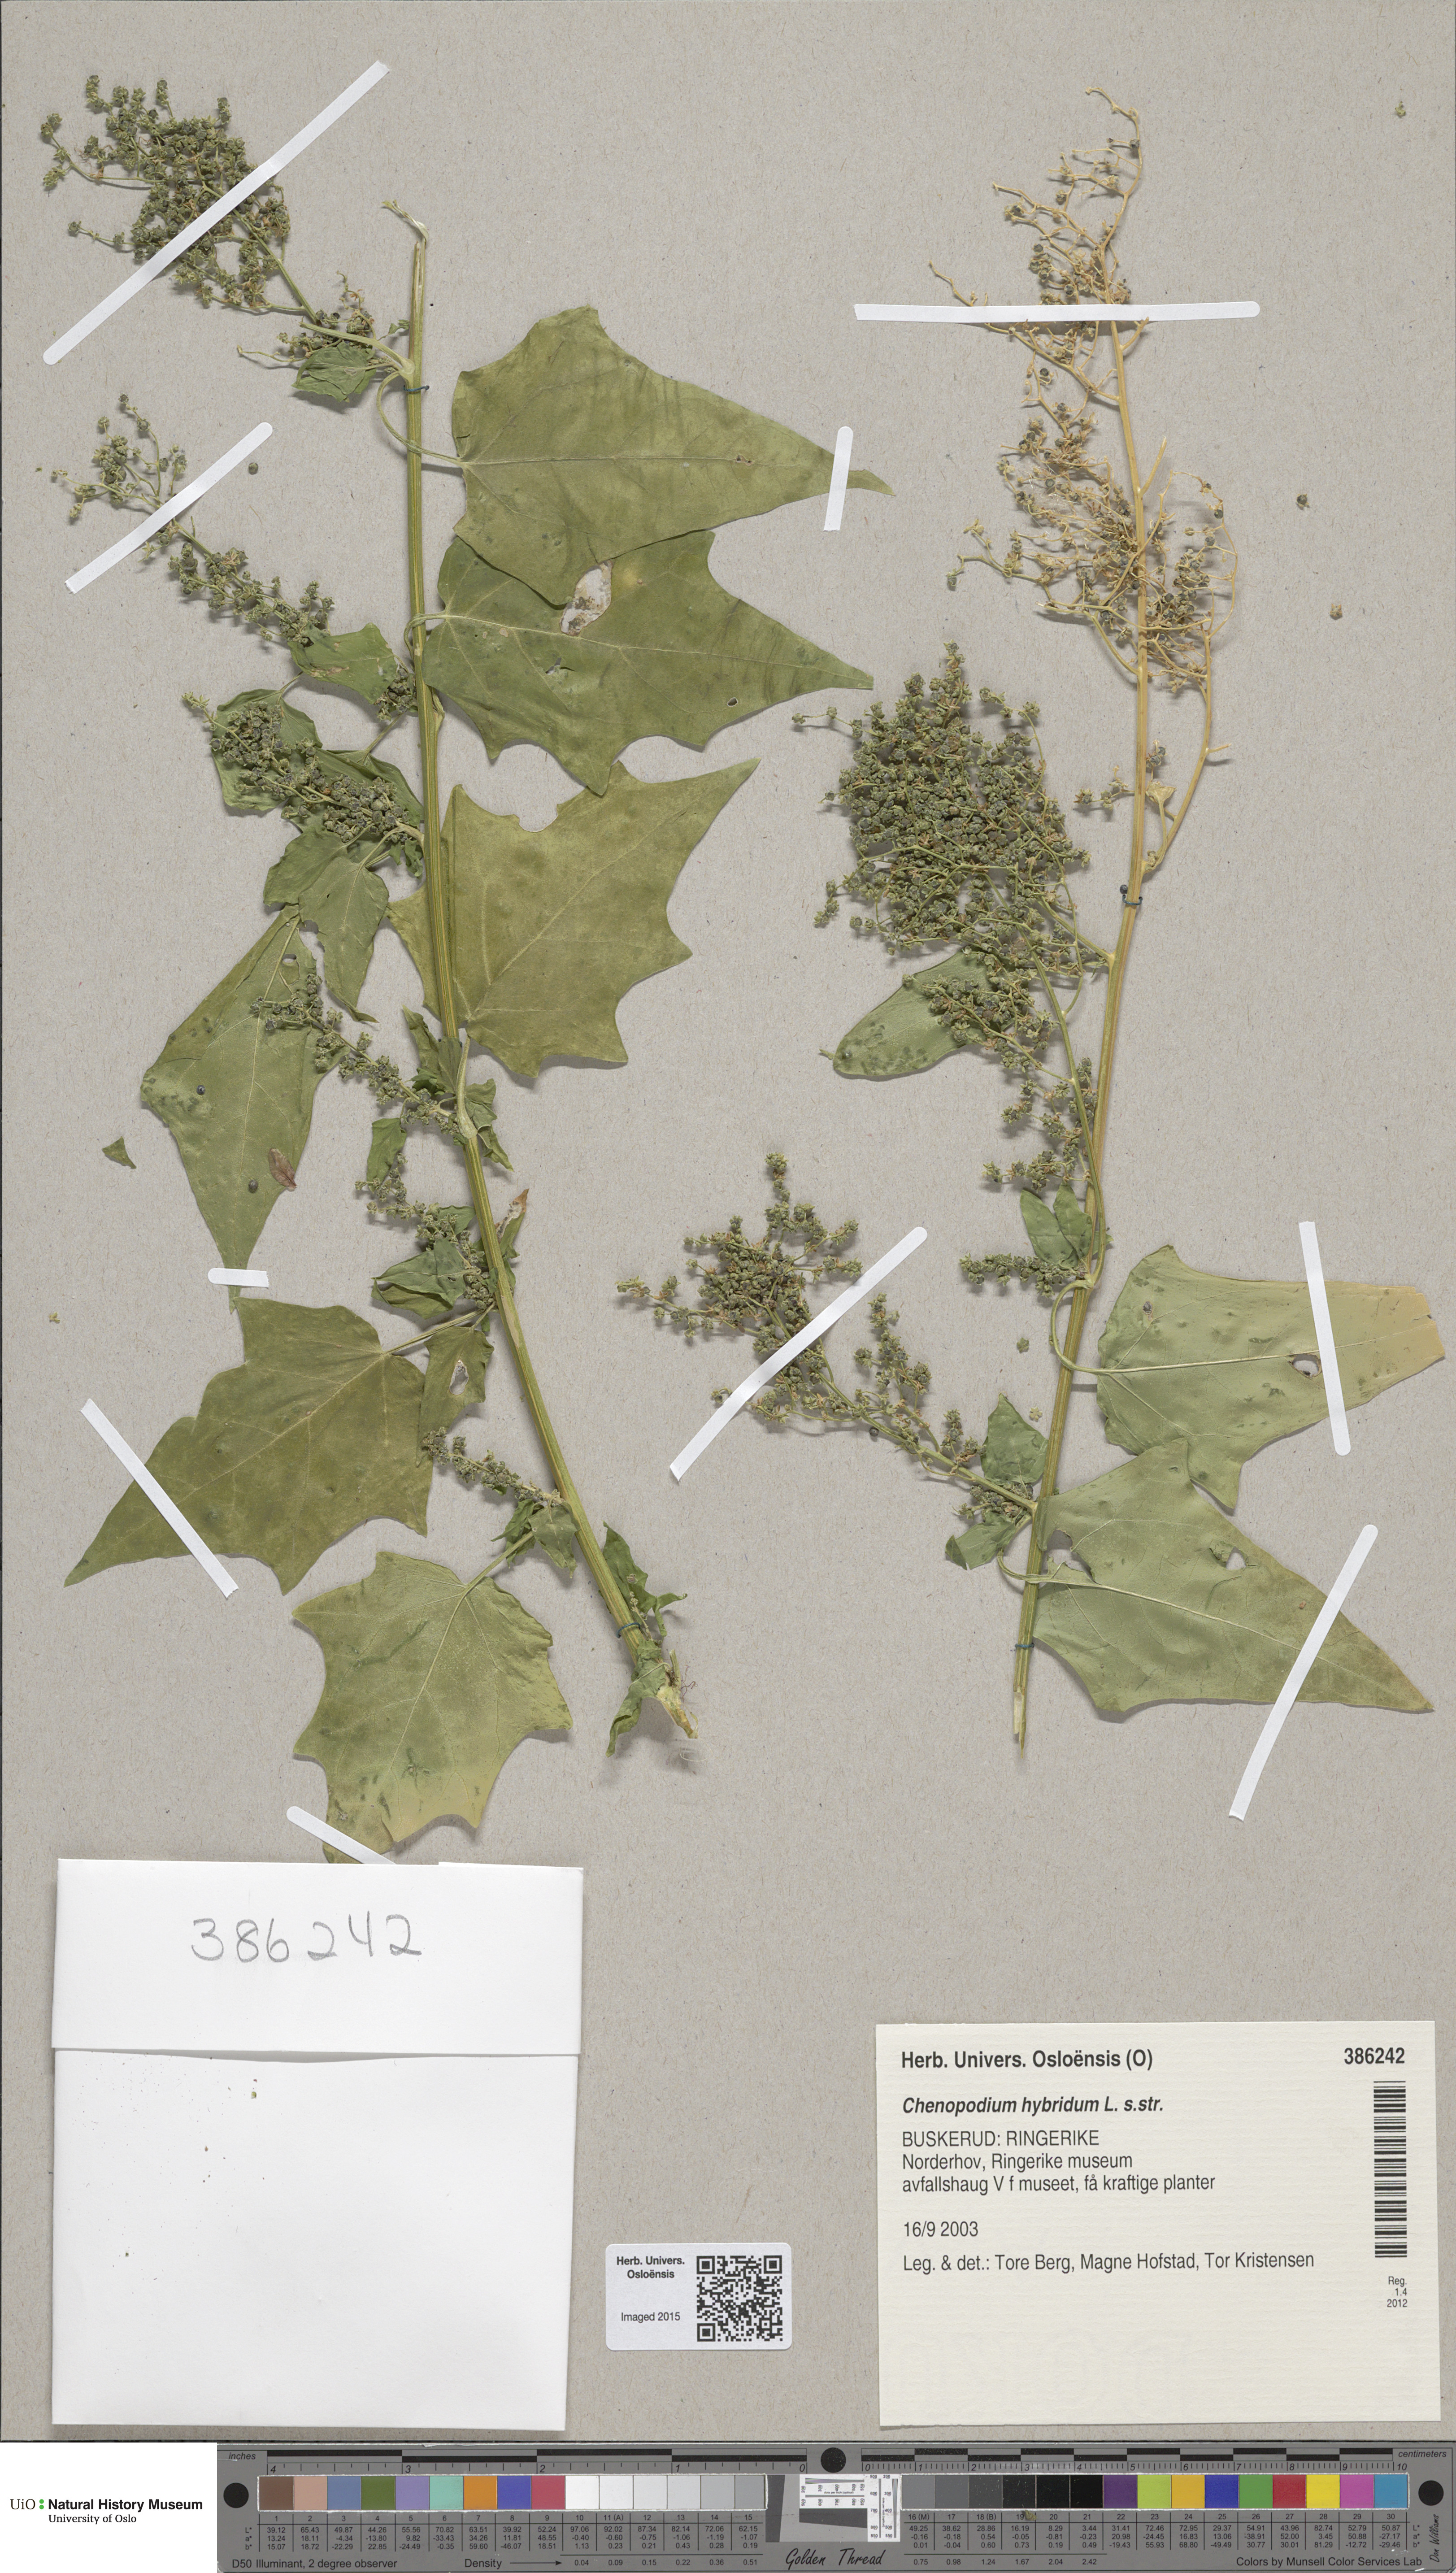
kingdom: Plantae
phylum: Tracheophyta
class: Magnoliopsida
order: Caryophyllales
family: Amaranthaceae
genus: Chenopodiastrum
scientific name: Chenopodiastrum hybridum
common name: Mapleleaf goosefoot
